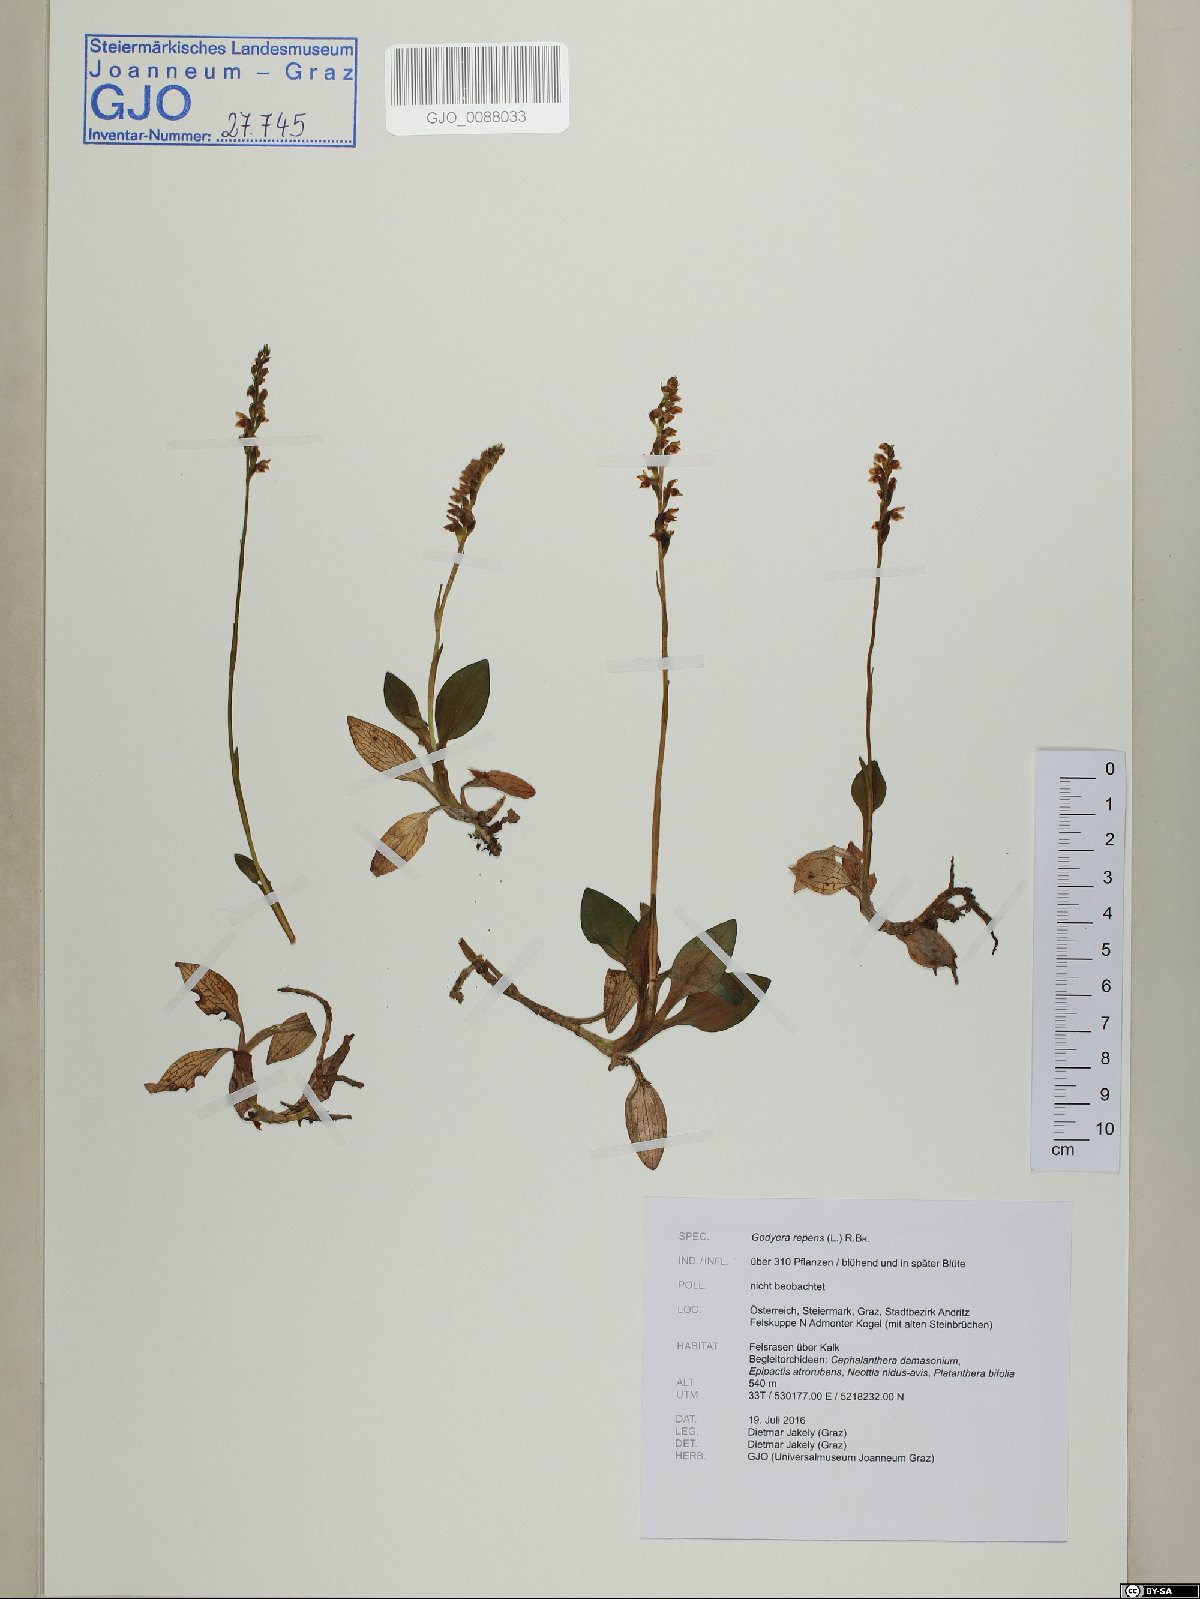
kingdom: Plantae
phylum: Tracheophyta
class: Liliopsida
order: Asparagales
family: Orchidaceae
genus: Goodyera
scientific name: Goodyera repens
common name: Creeping lady's-tresses
